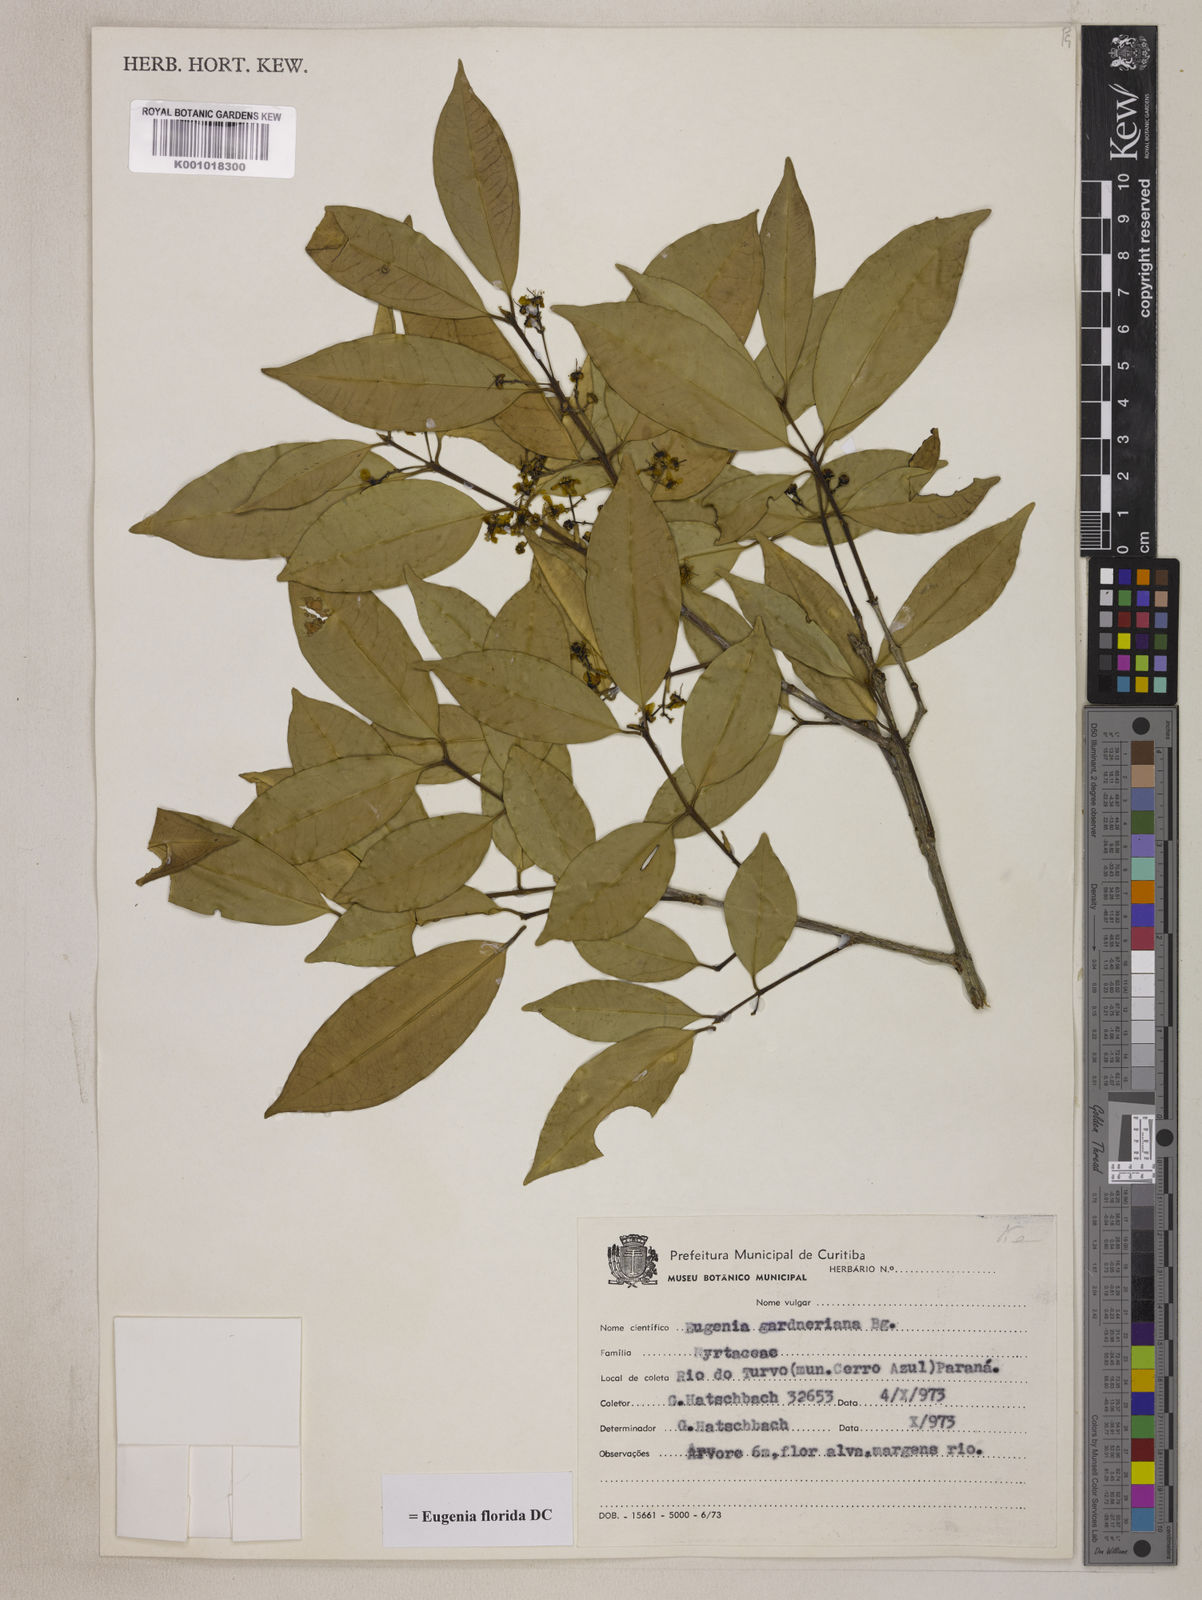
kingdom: Plantae
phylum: Tracheophyta
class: Magnoliopsida
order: Myrtales
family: Myrtaceae
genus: Eugenia
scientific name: Eugenia florida
